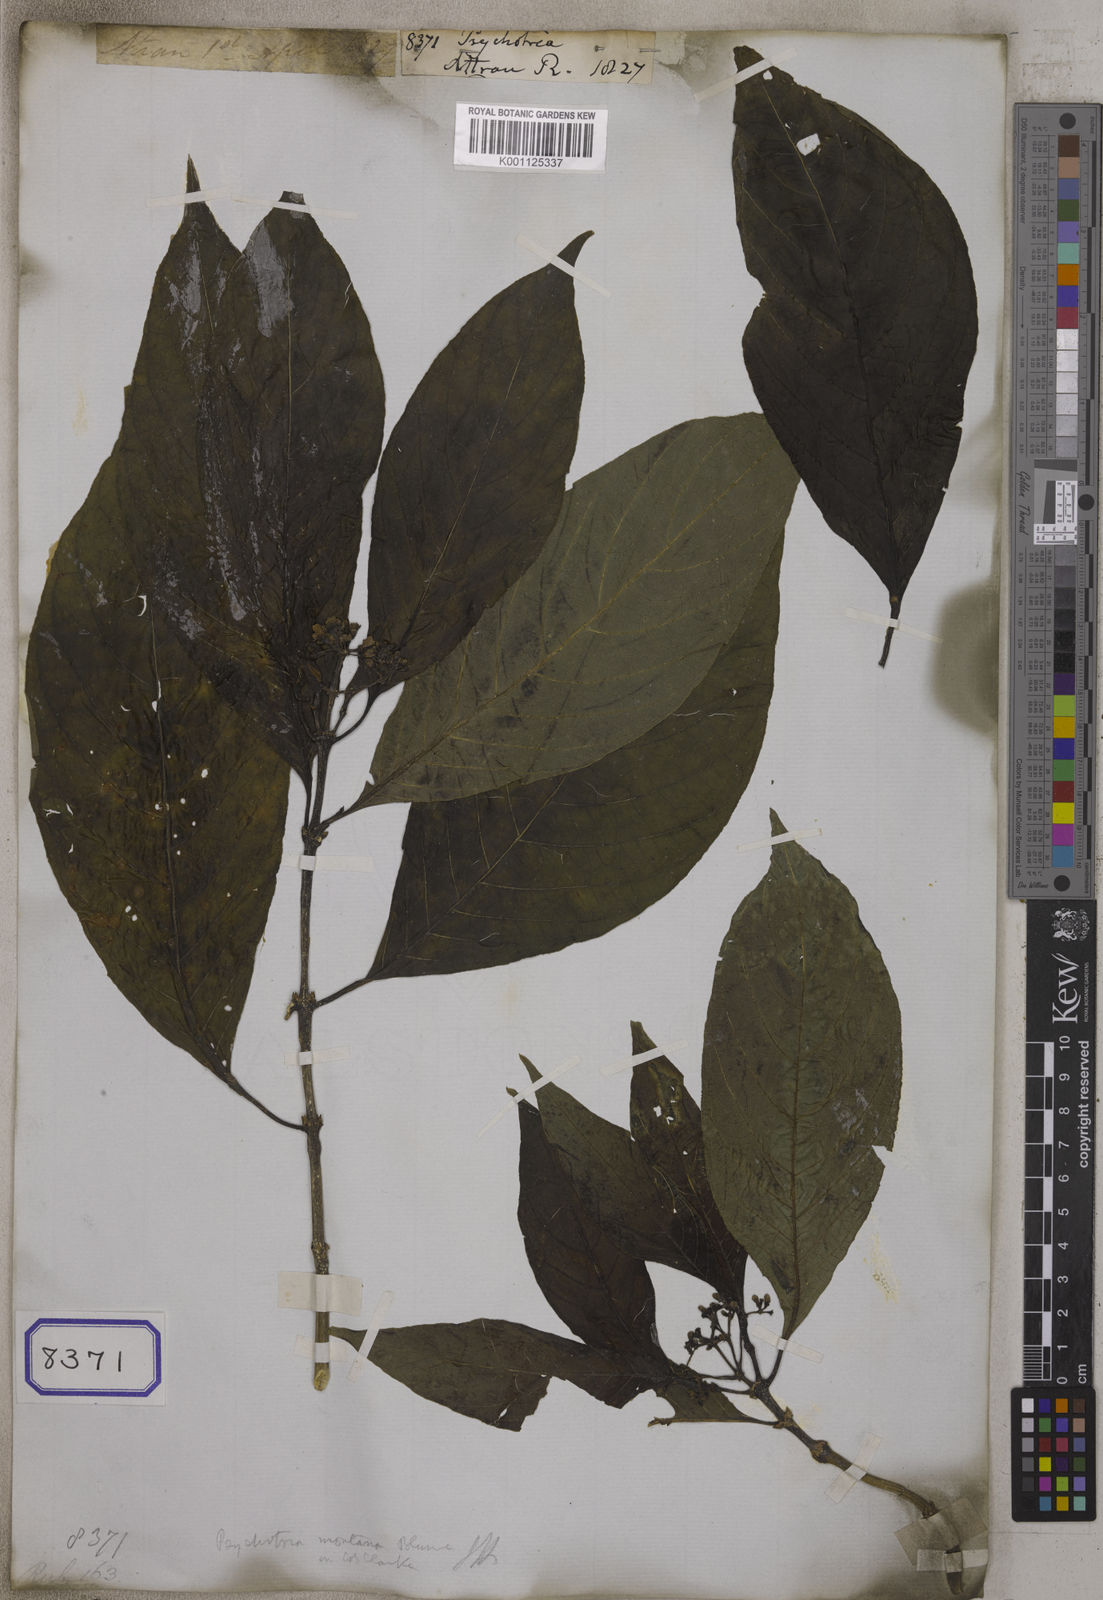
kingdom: Plantae
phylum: Tracheophyta
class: Magnoliopsida
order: Gentianales
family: Rubiaceae
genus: Psychotria
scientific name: Psychotria
